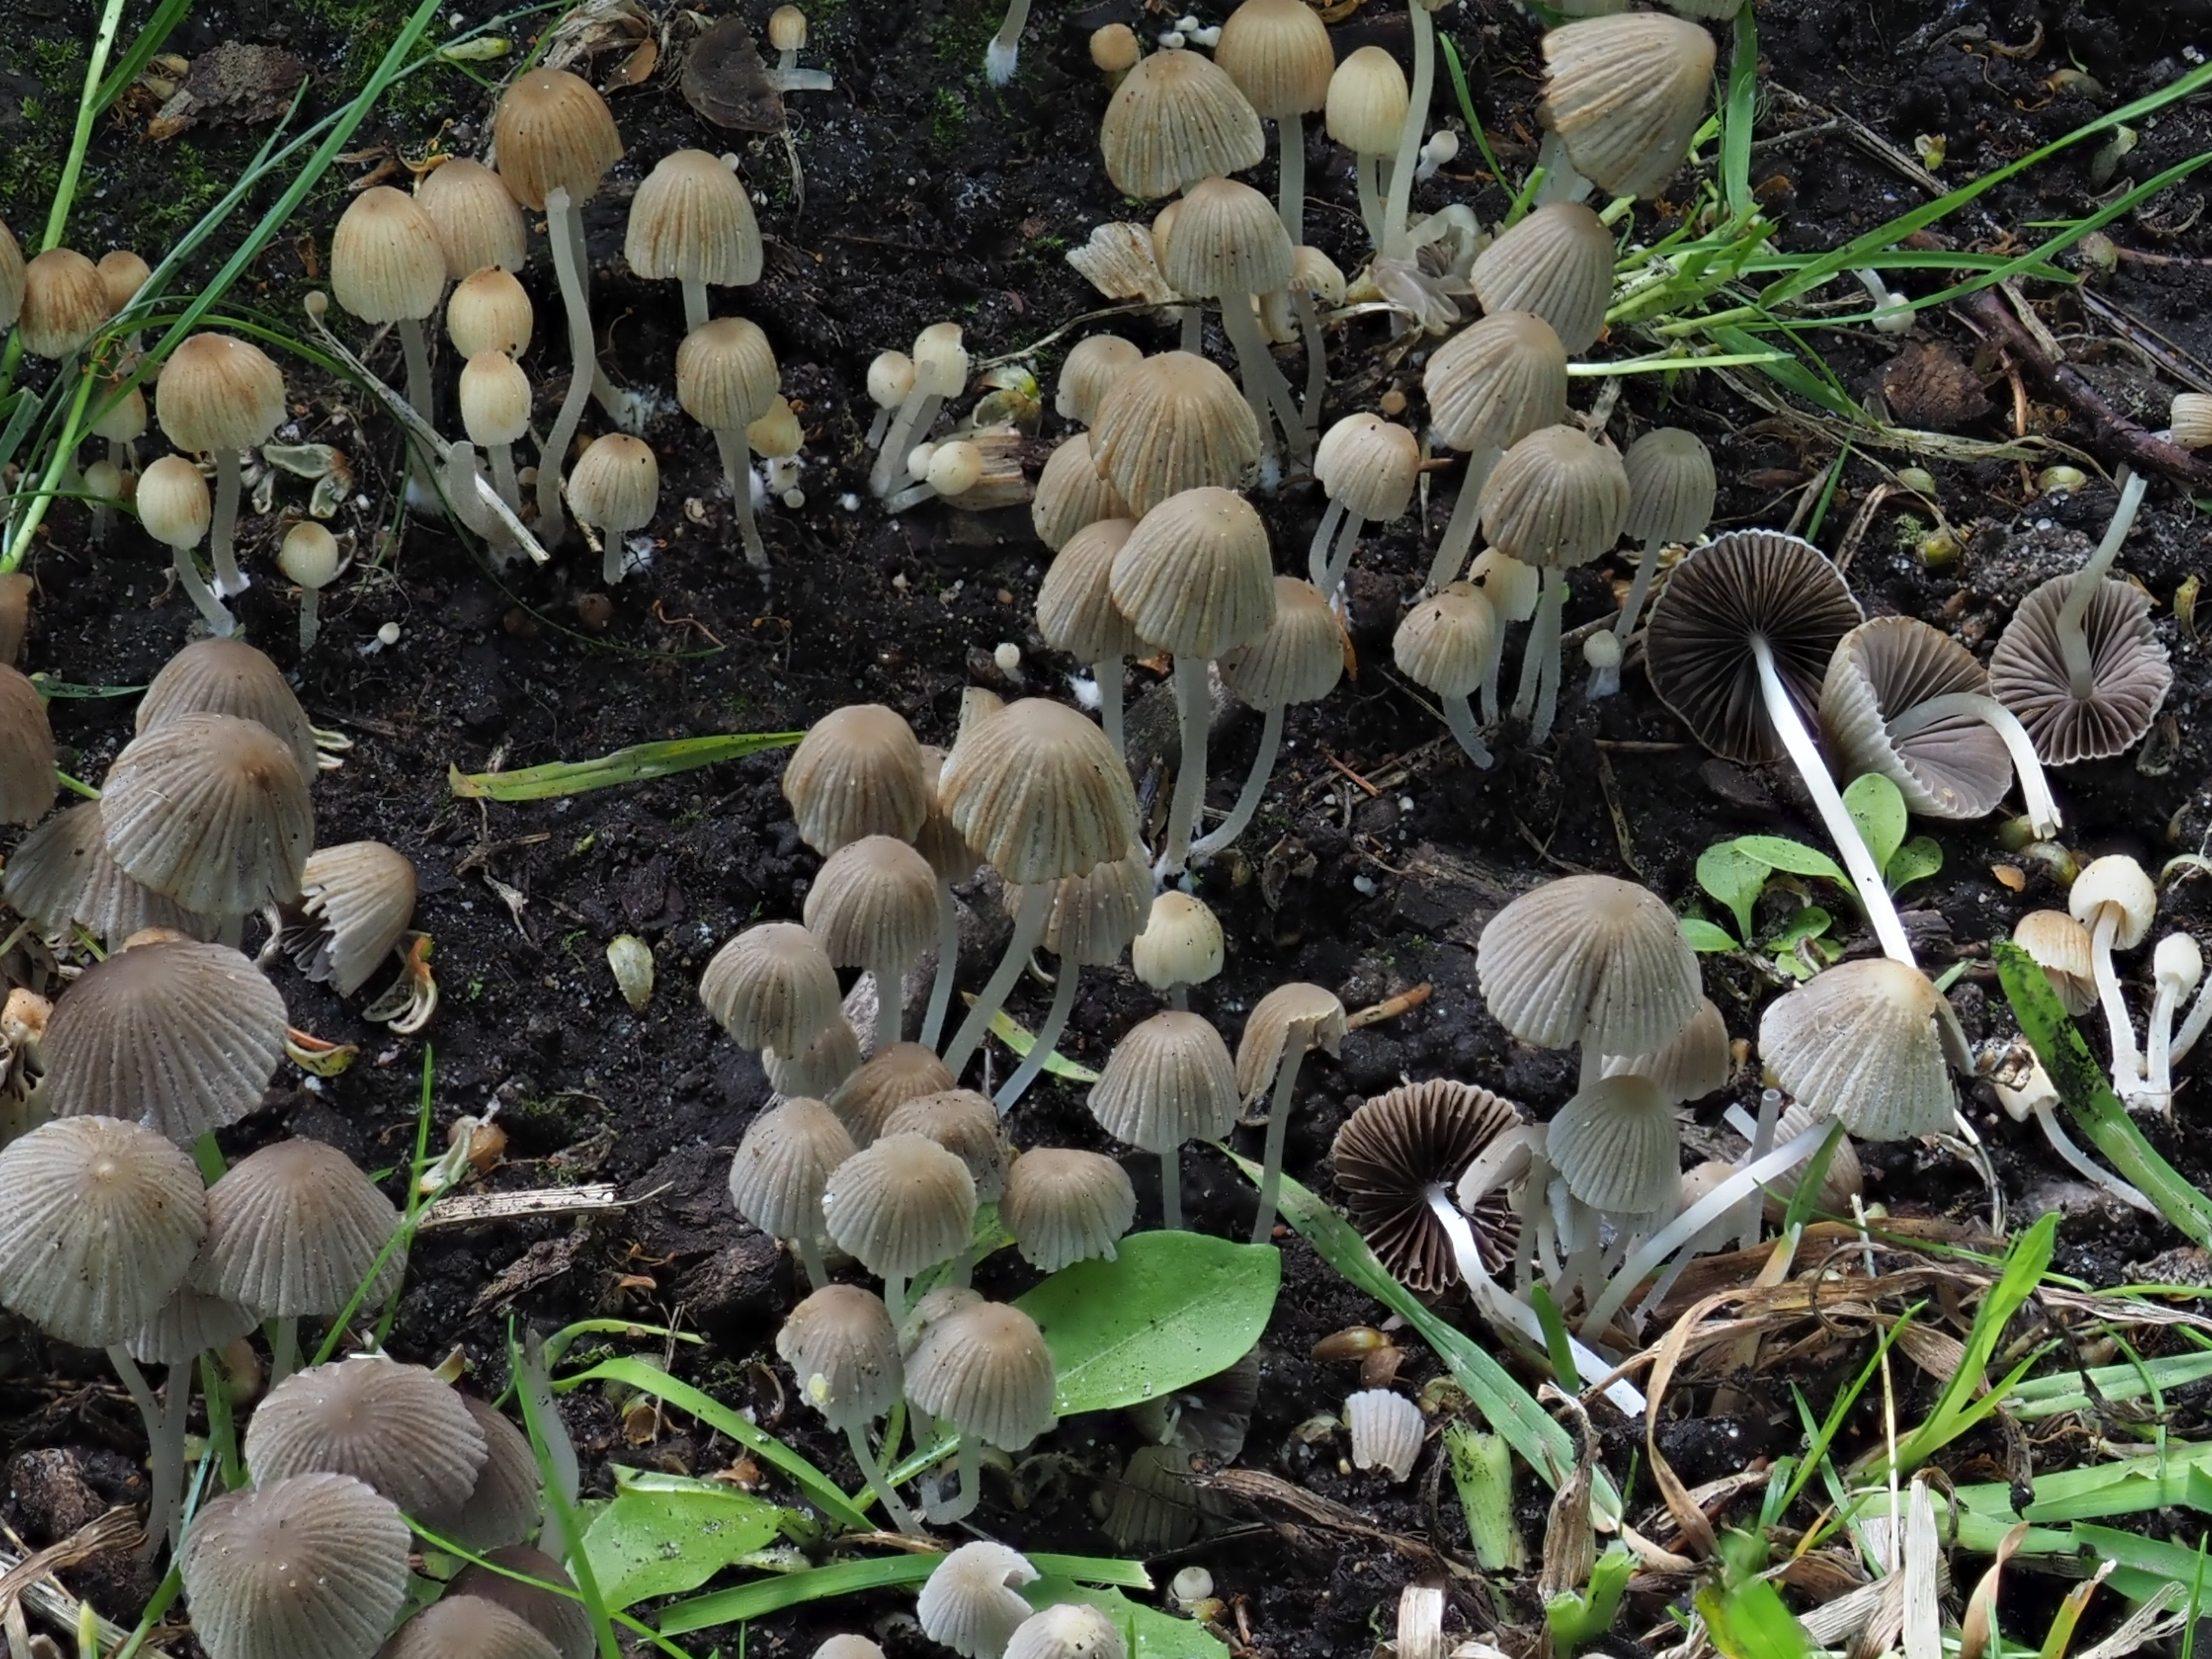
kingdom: Fungi
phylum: Basidiomycota
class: Agaricomycetes
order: Agaricales
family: Psathyrellaceae
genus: Coprinellus
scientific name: Coprinellus disseminatus
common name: Fairies' bonnets
